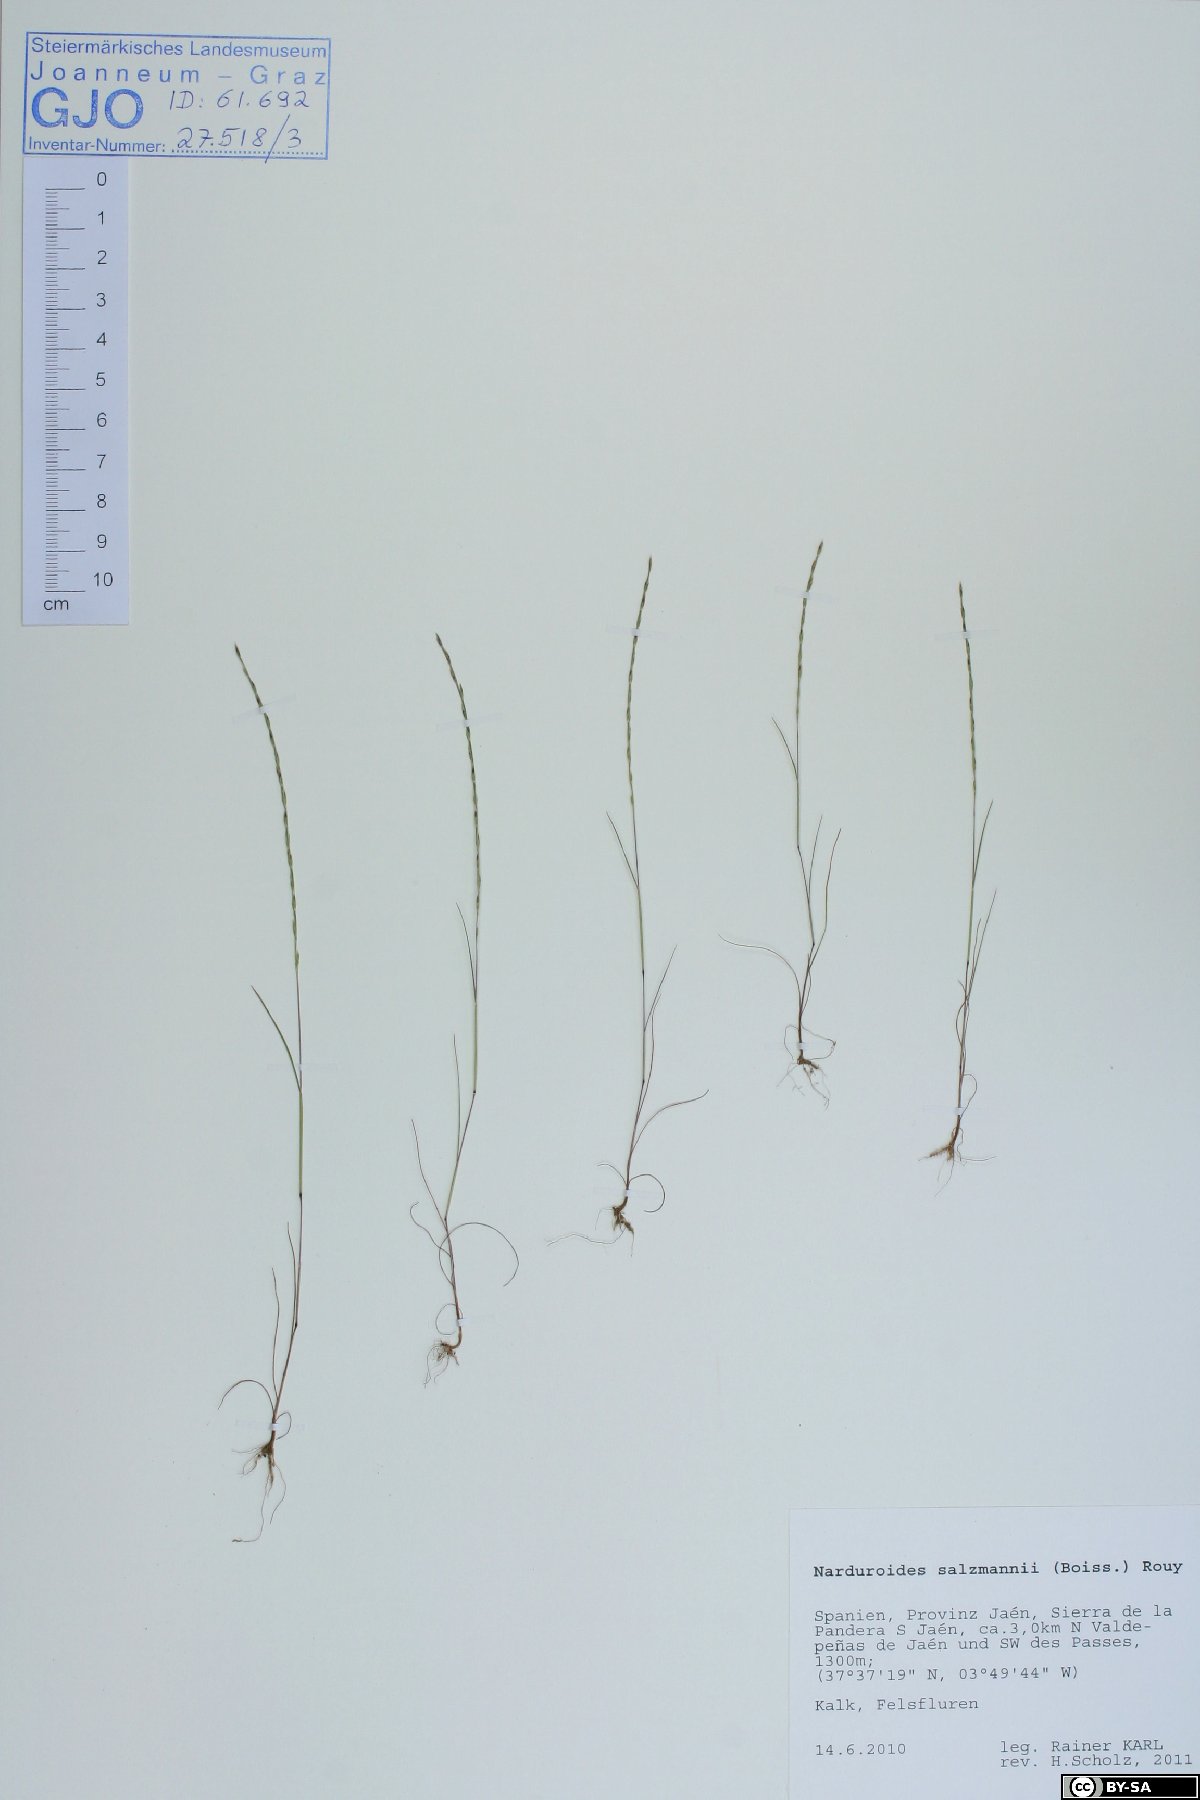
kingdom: Plantae
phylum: Tracheophyta
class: Liliopsida
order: Poales
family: Poaceae
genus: Festuca
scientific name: Festuca salzmannii
